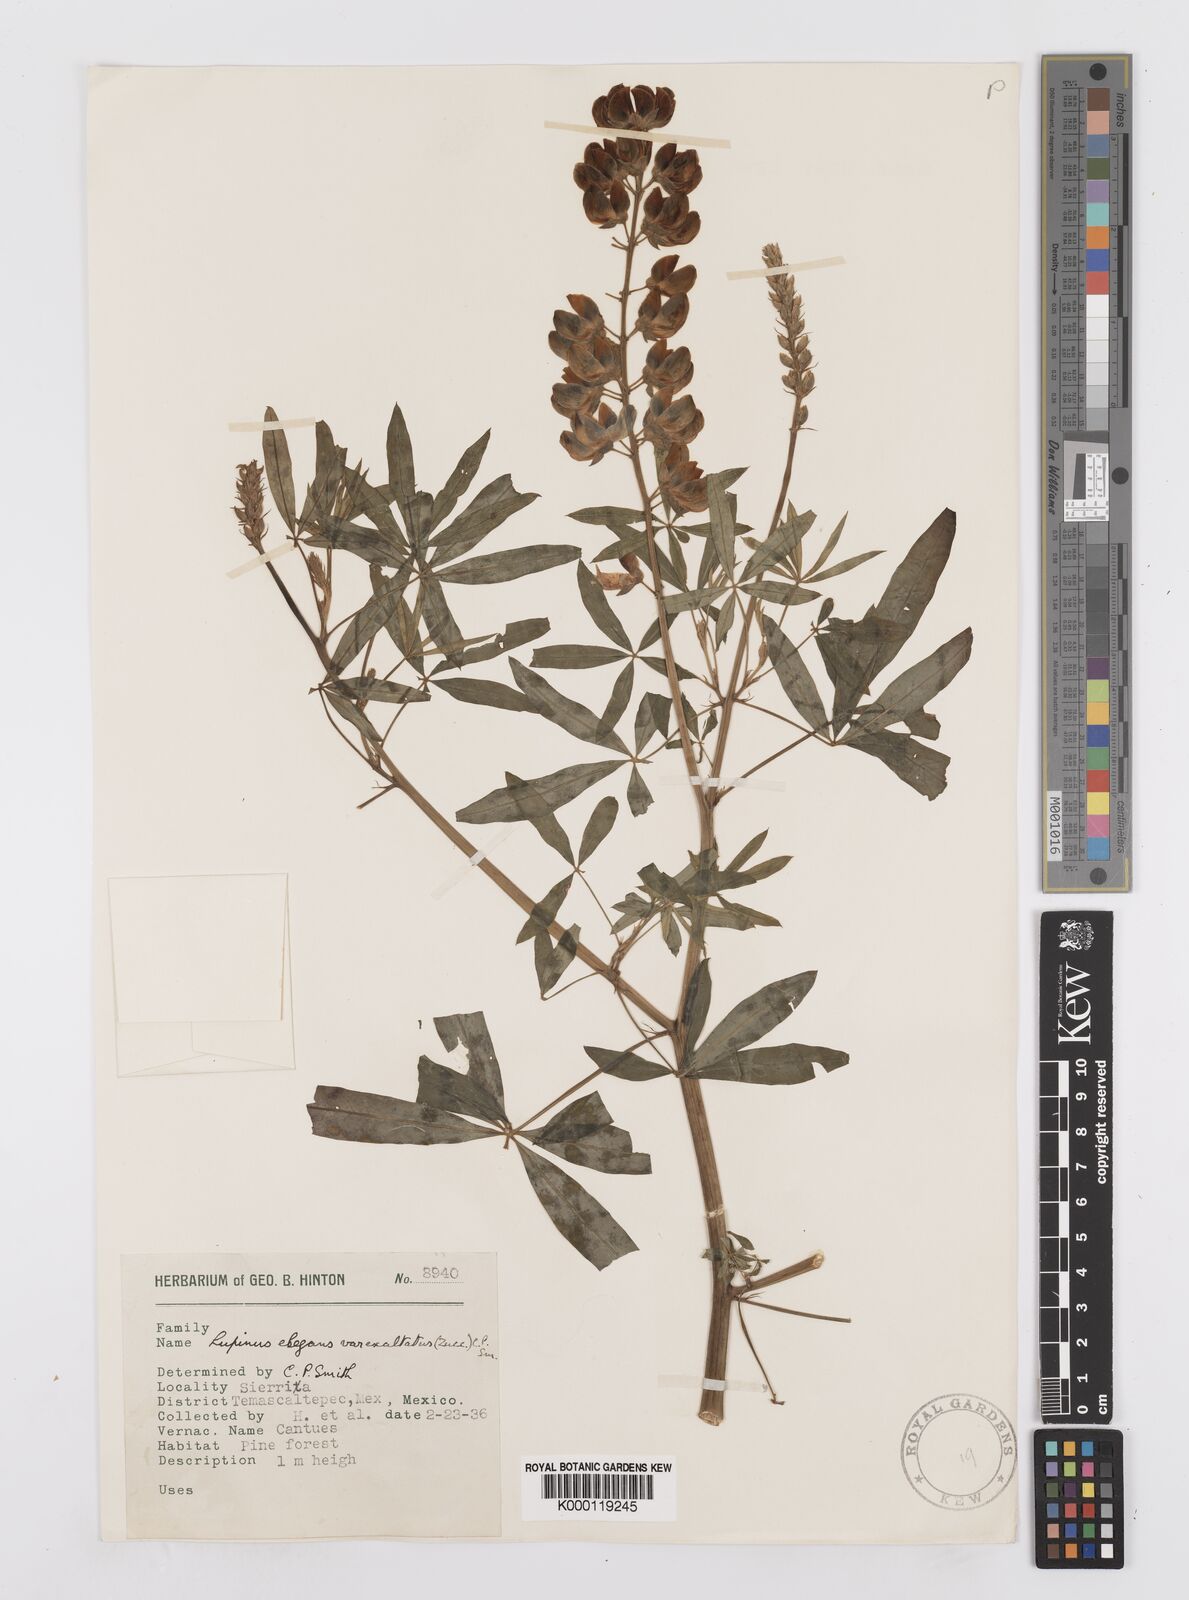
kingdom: Plantae
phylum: Tracheophyta
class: Magnoliopsida
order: Fabales
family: Fabaceae
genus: Lupinus
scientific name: Lupinus elegans
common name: Mexican lupine
